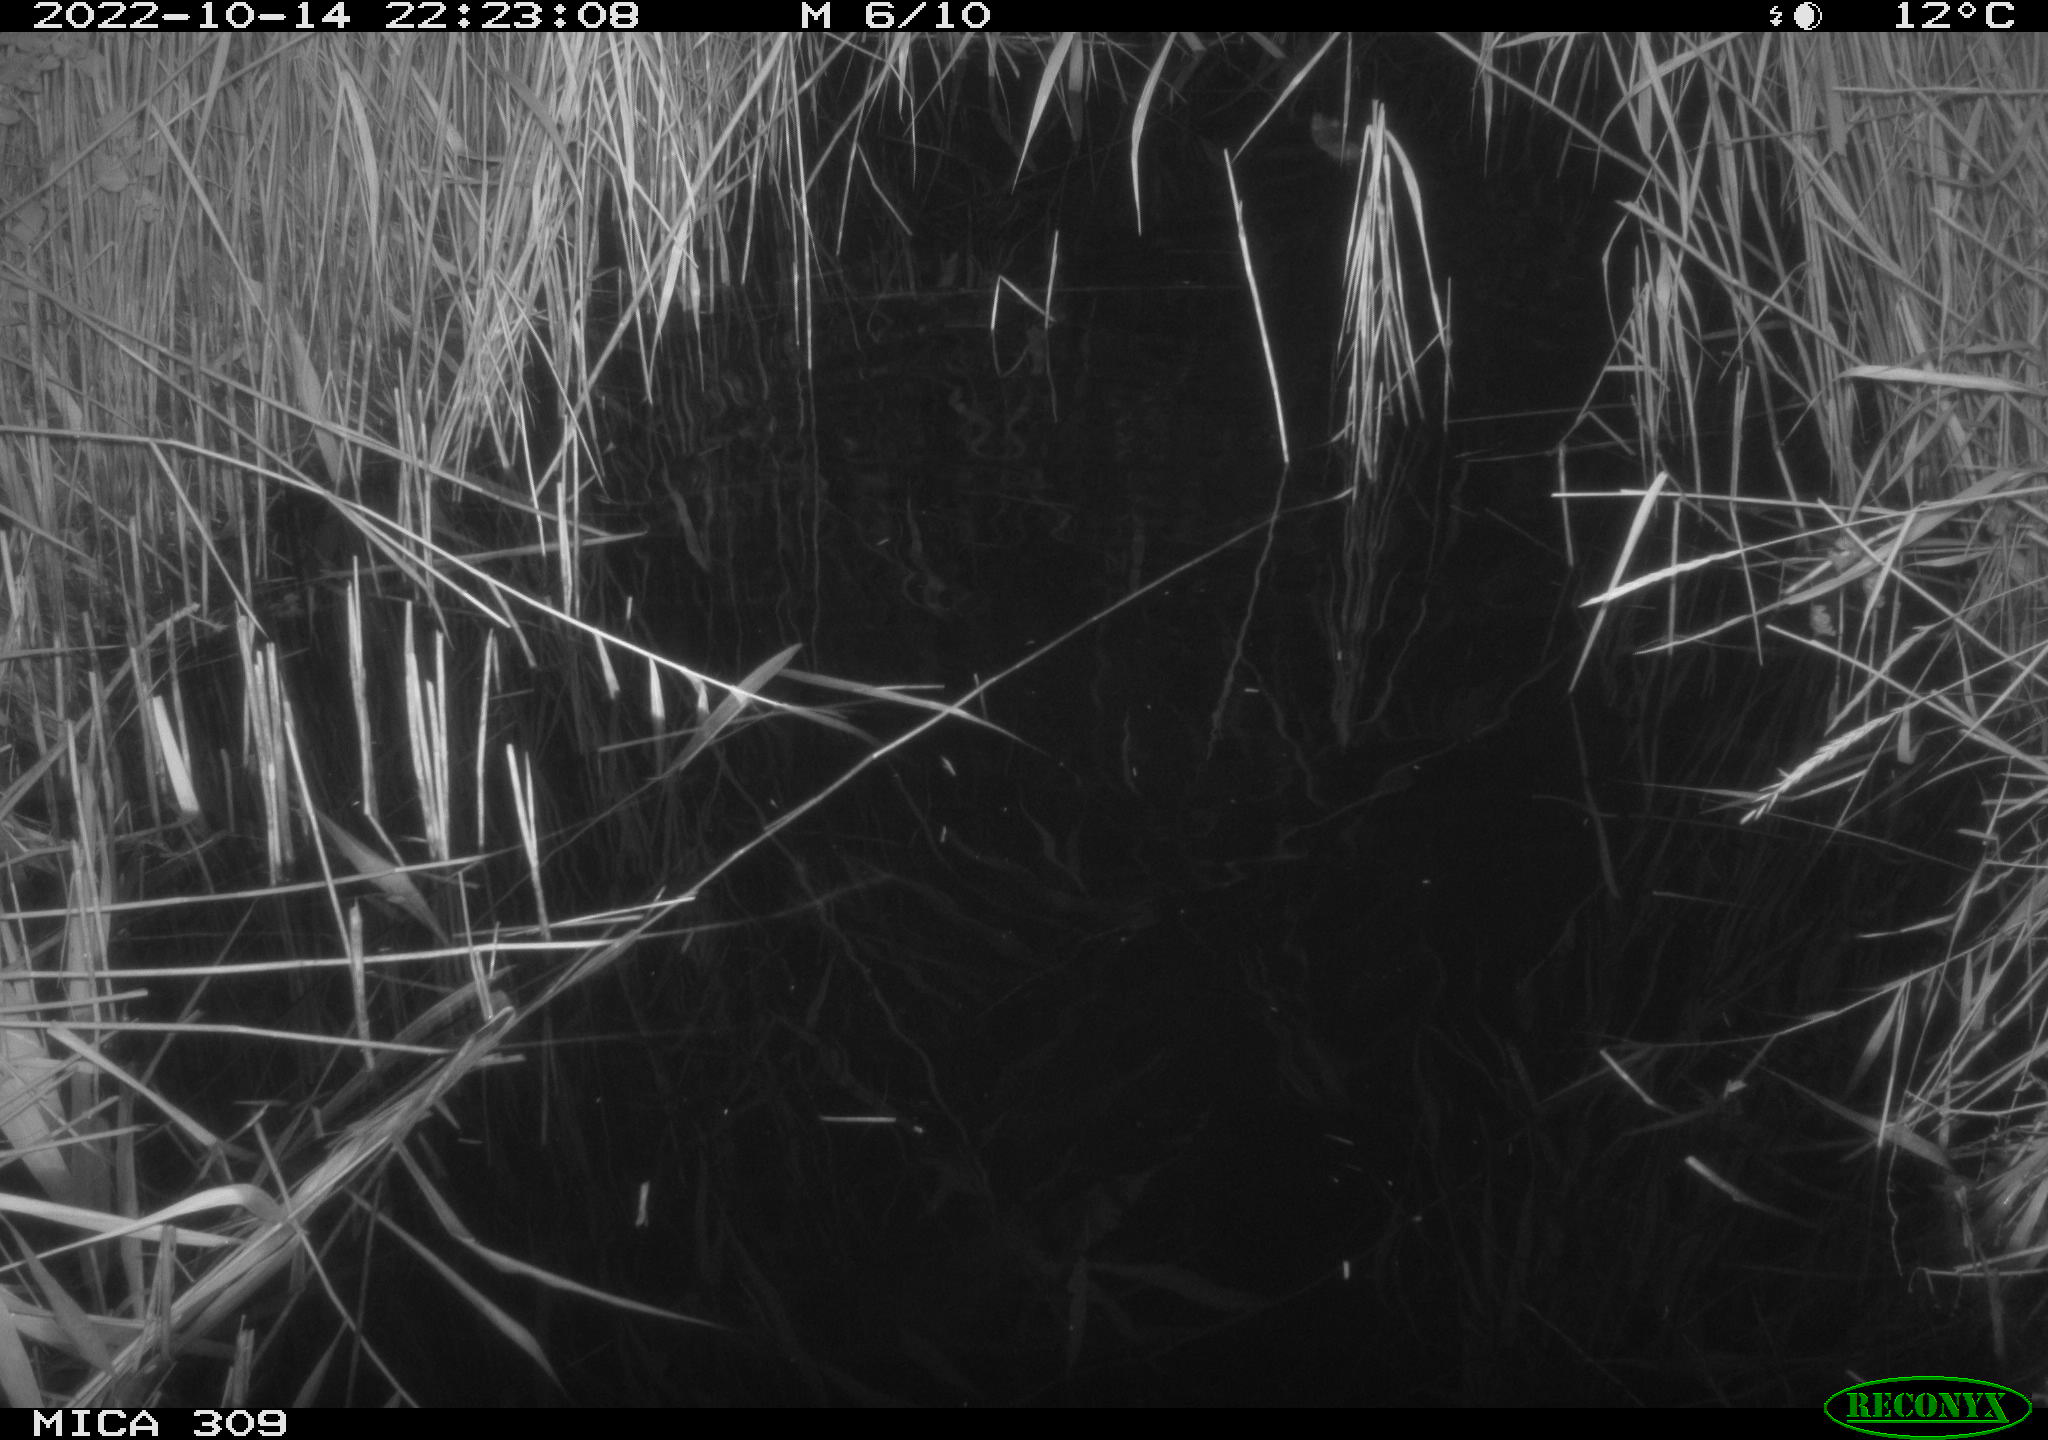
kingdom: Animalia
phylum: Chordata
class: Mammalia
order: Rodentia
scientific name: Rodentia
